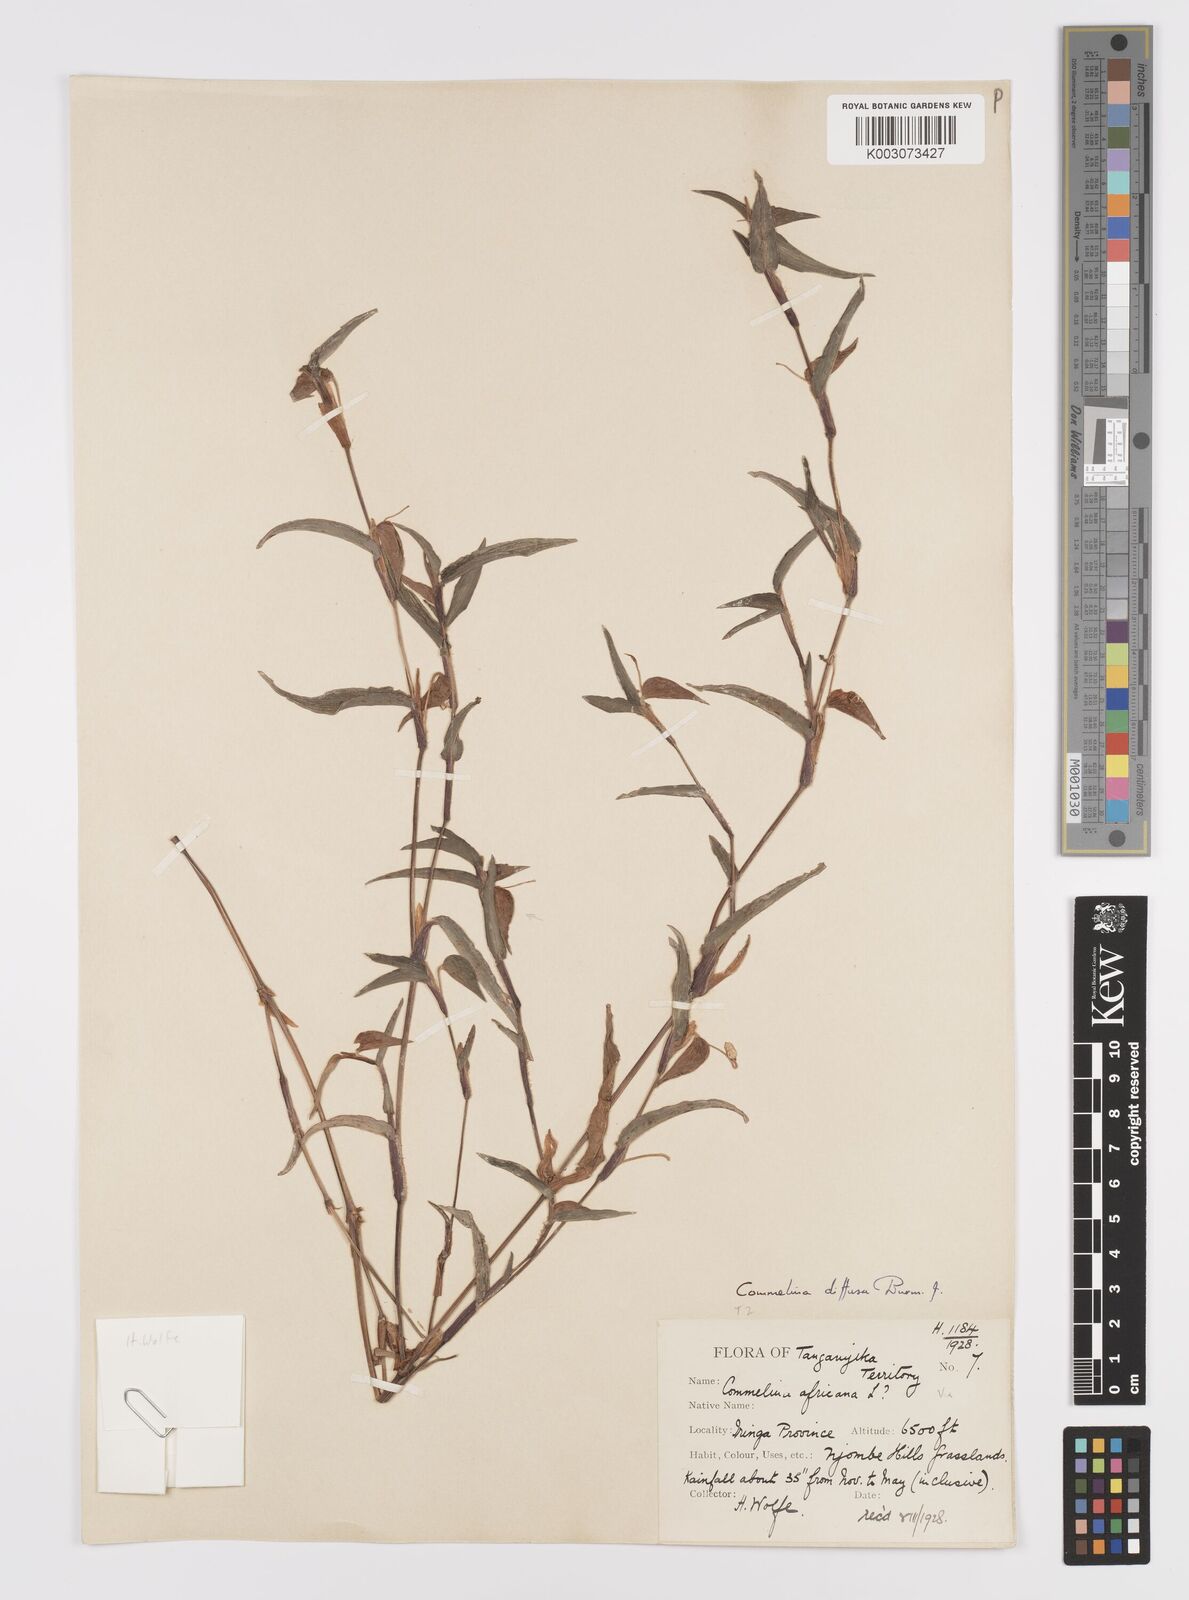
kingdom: Plantae
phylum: Tracheophyta
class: Liliopsida
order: Commelinales
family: Commelinaceae
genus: Commelina
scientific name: Commelina africana
